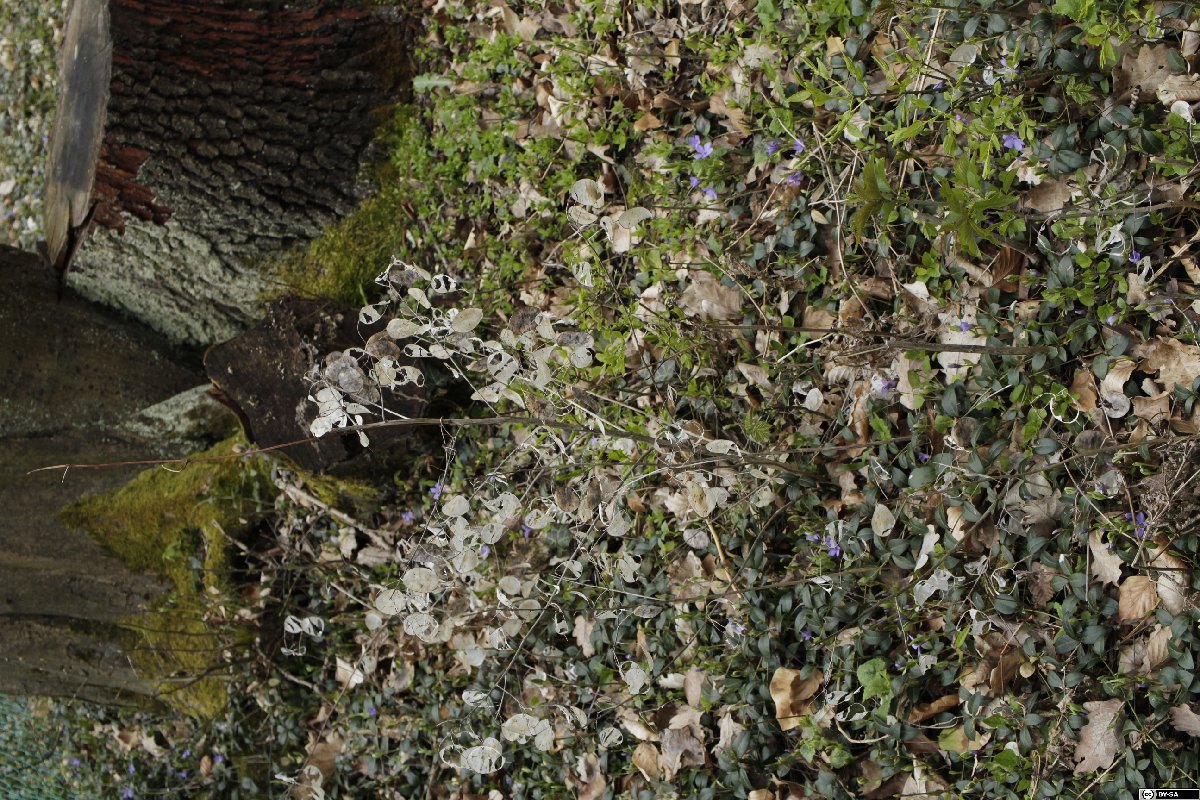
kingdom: Plantae
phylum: Tracheophyta
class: Magnoliopsida
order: Brassicales
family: Brassicaceae
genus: Lunaria
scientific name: Lunaria annua
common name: Honesty
